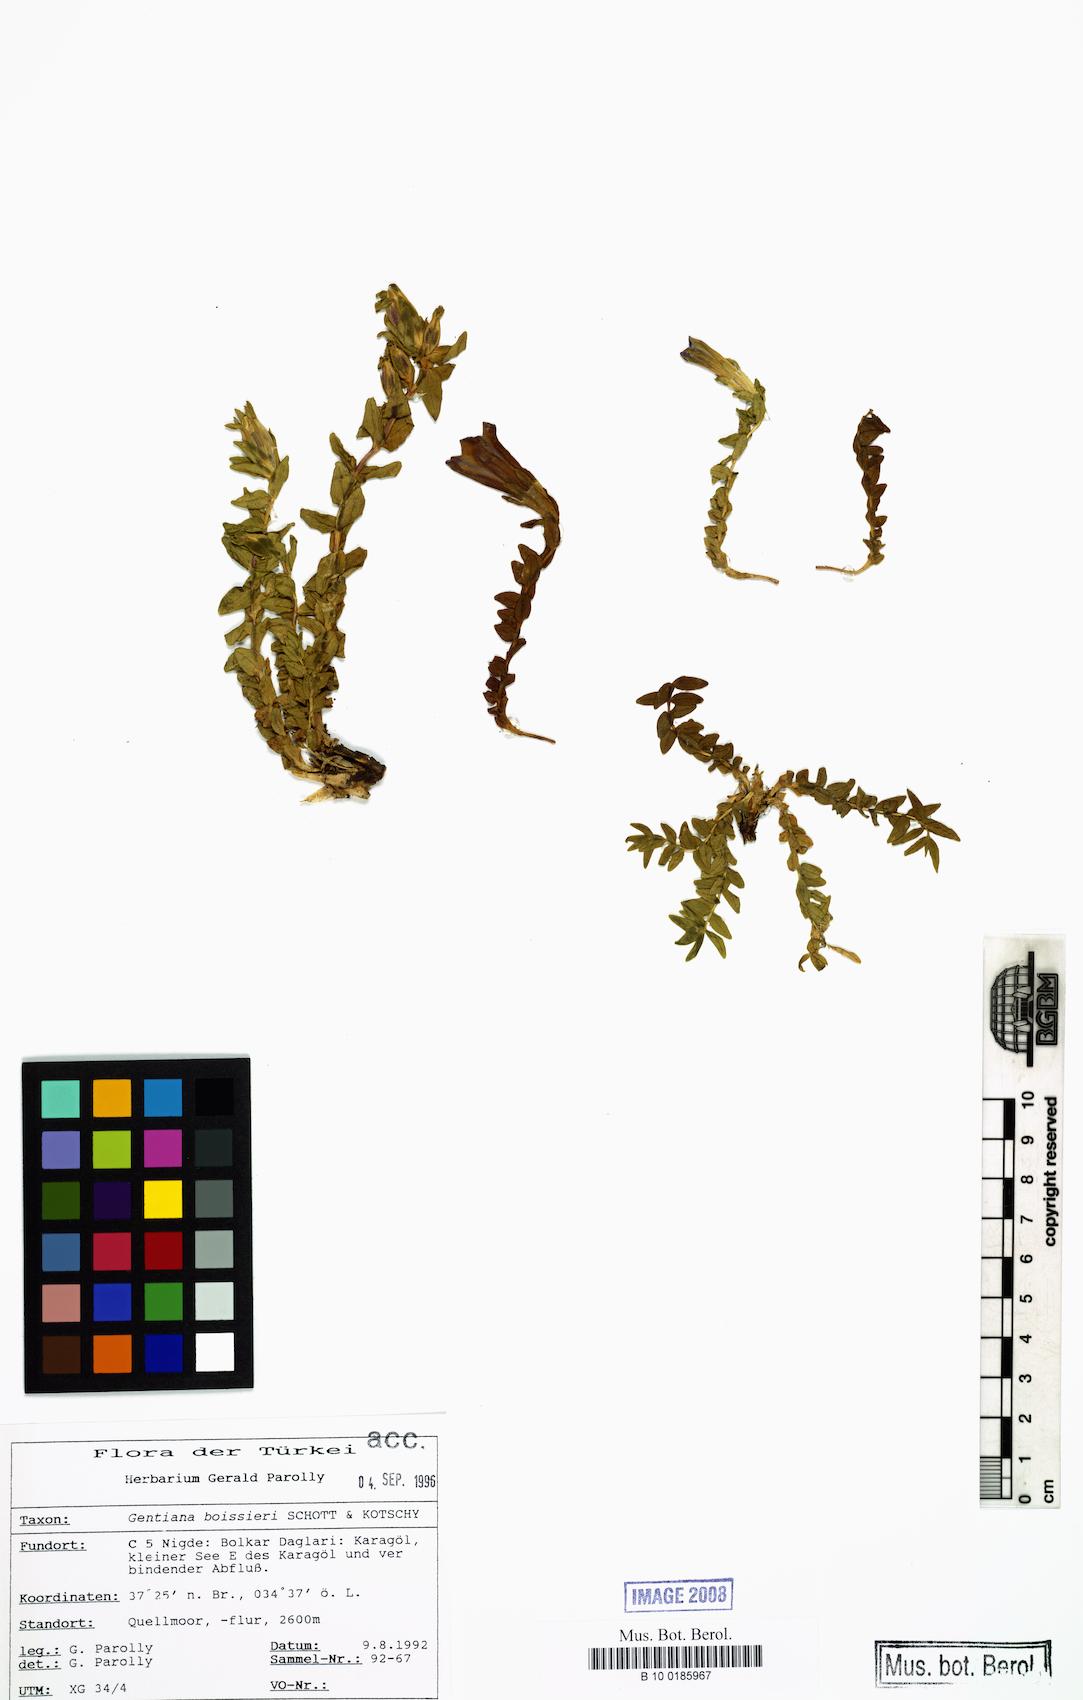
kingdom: Plantae
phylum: Tracheophyta
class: Magnoliopsida
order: Gentianales
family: Gentianaceae
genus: Gentiana
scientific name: Gentiana boissieri
